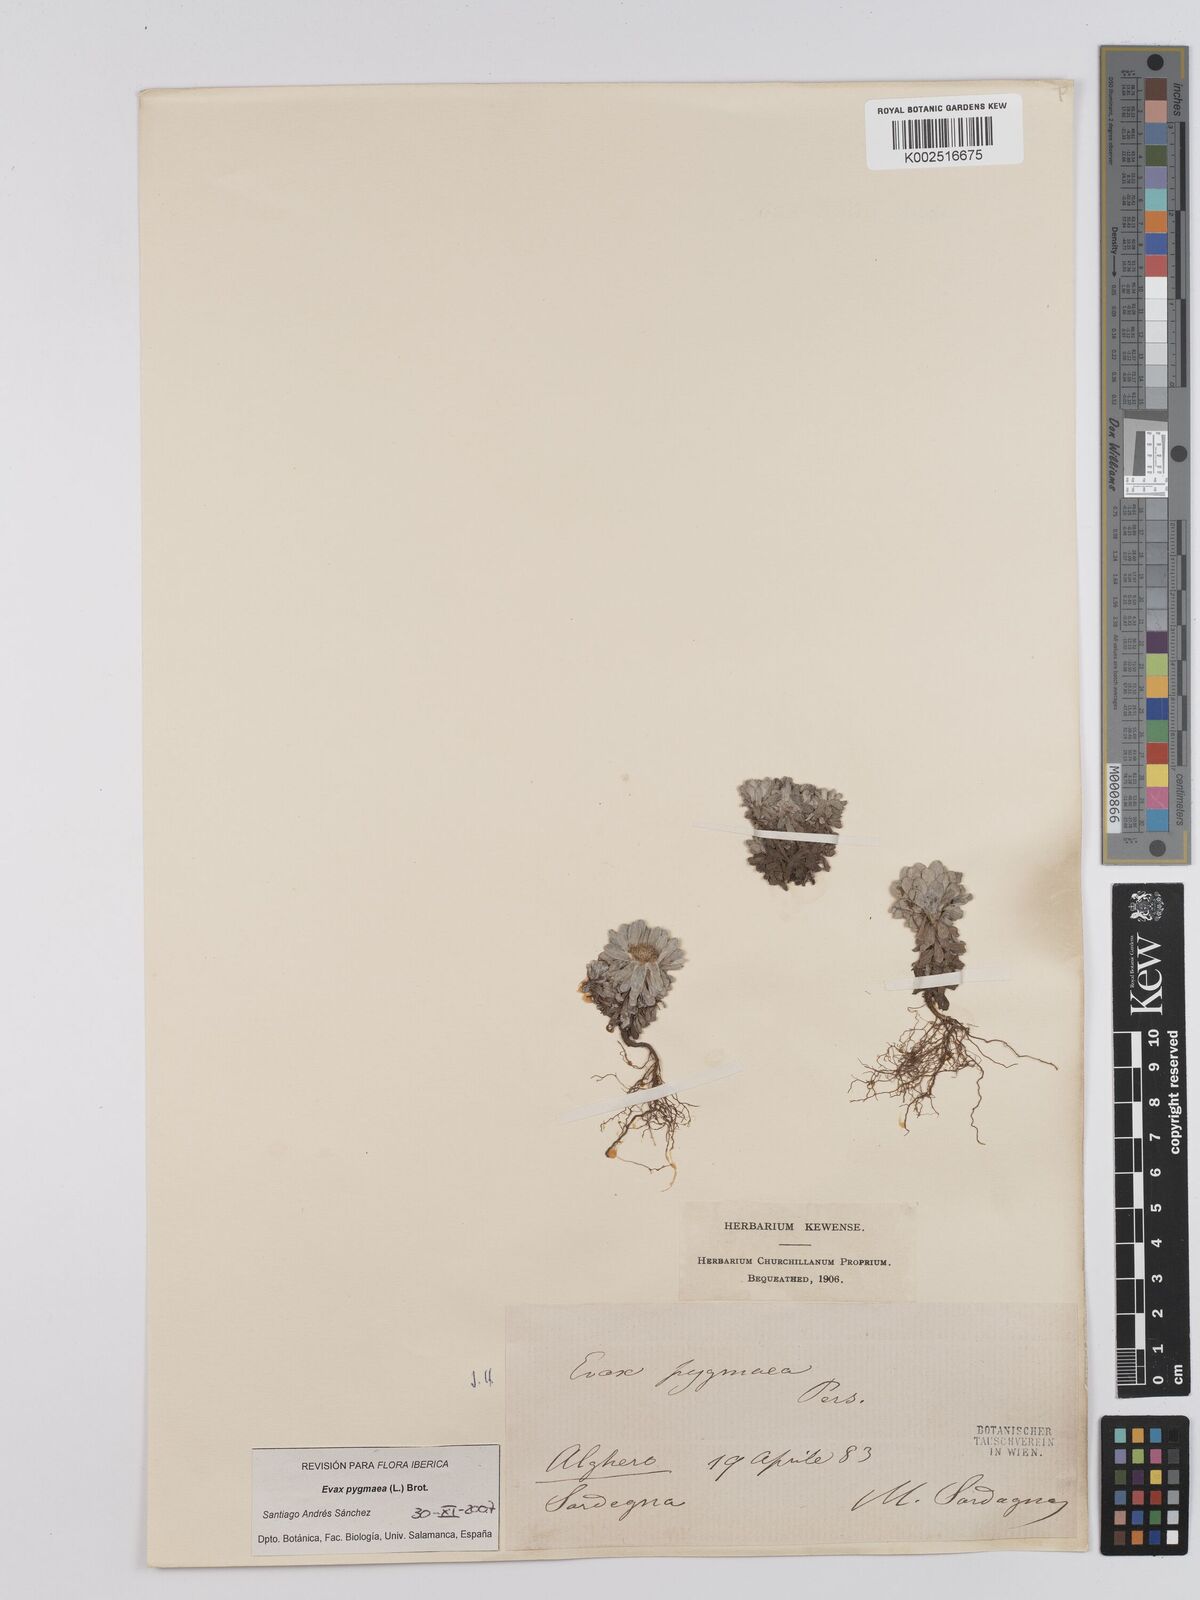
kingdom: Plantae
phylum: Tracheophyta
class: Magnoliopsida
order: Asterales
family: Asteraceae
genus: Filago
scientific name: Filago pygmaea
